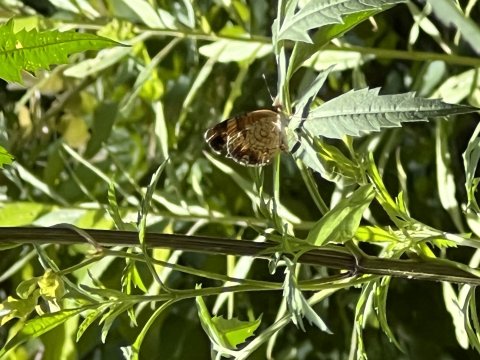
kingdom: Animalia
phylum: Arthropoda
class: Insecta
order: Lepidoptera
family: Nymphalidae
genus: Phyciodes
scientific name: Phyciodes tharos
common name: Pearl Crescent
